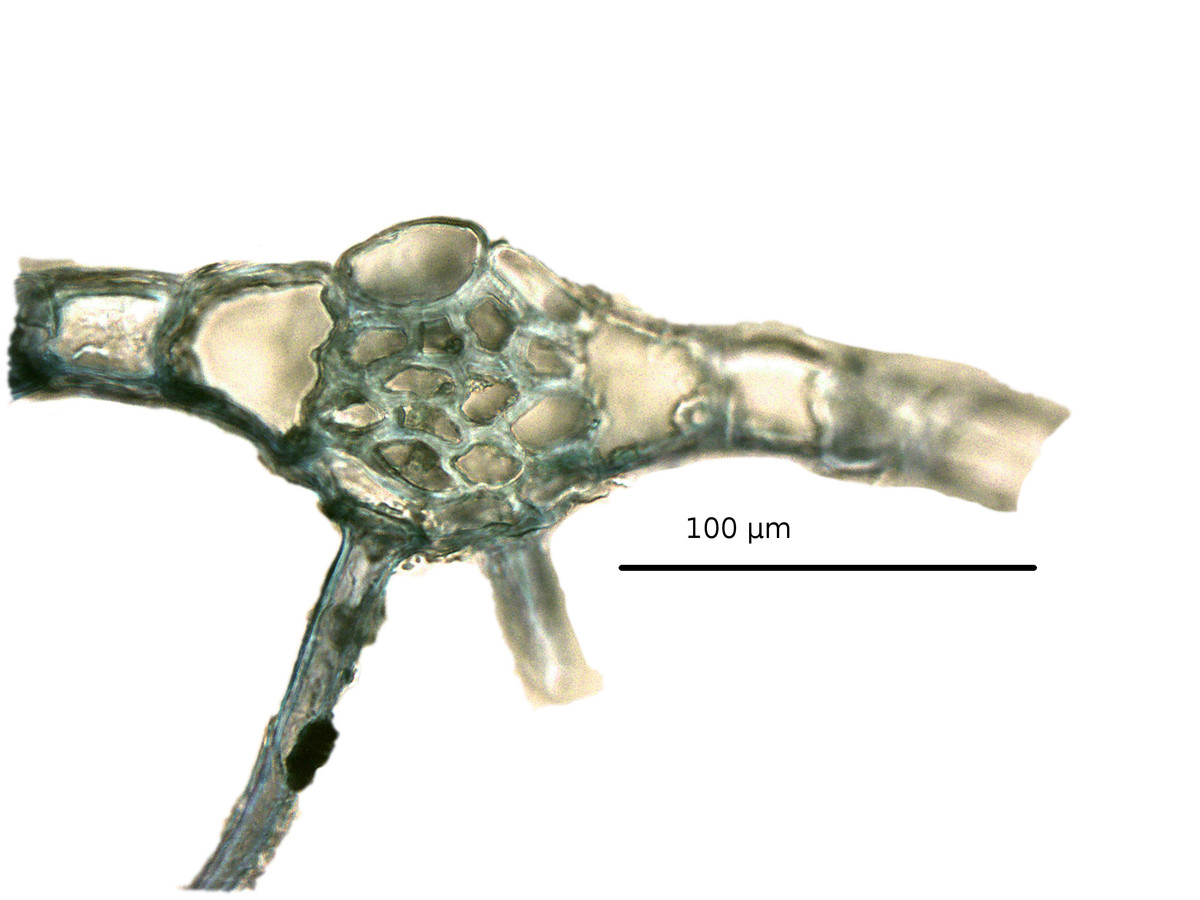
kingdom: Plantae
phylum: Marchantiophyta
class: Jungermanniopsida
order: Metzgeriales
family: Metzgeriaceae
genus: Metzgeria
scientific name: Metzgeria quadrifaria
